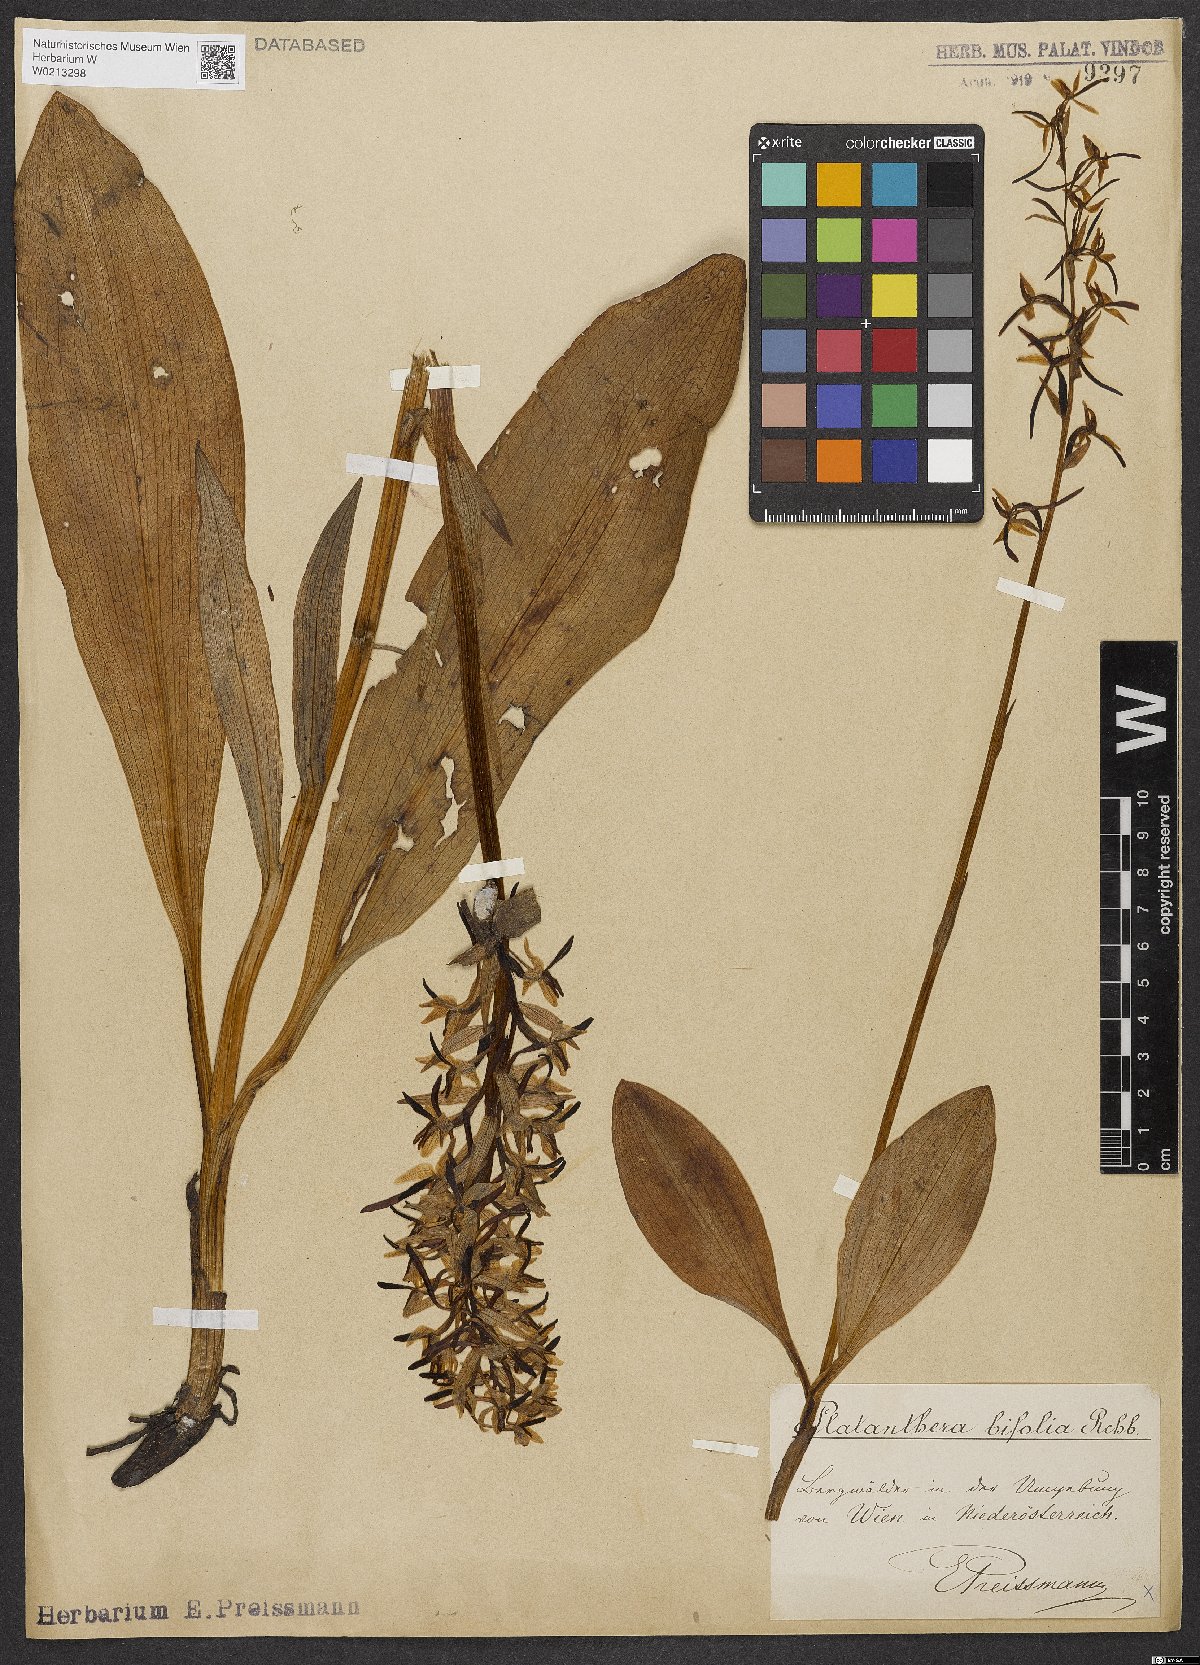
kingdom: Plantae
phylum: Tracheophyta
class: Liliopsida
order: Asparagales
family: Orchidaceae
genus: Platanthera
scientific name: Platanthera bifolia
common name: Lesser butterfly-orchid
